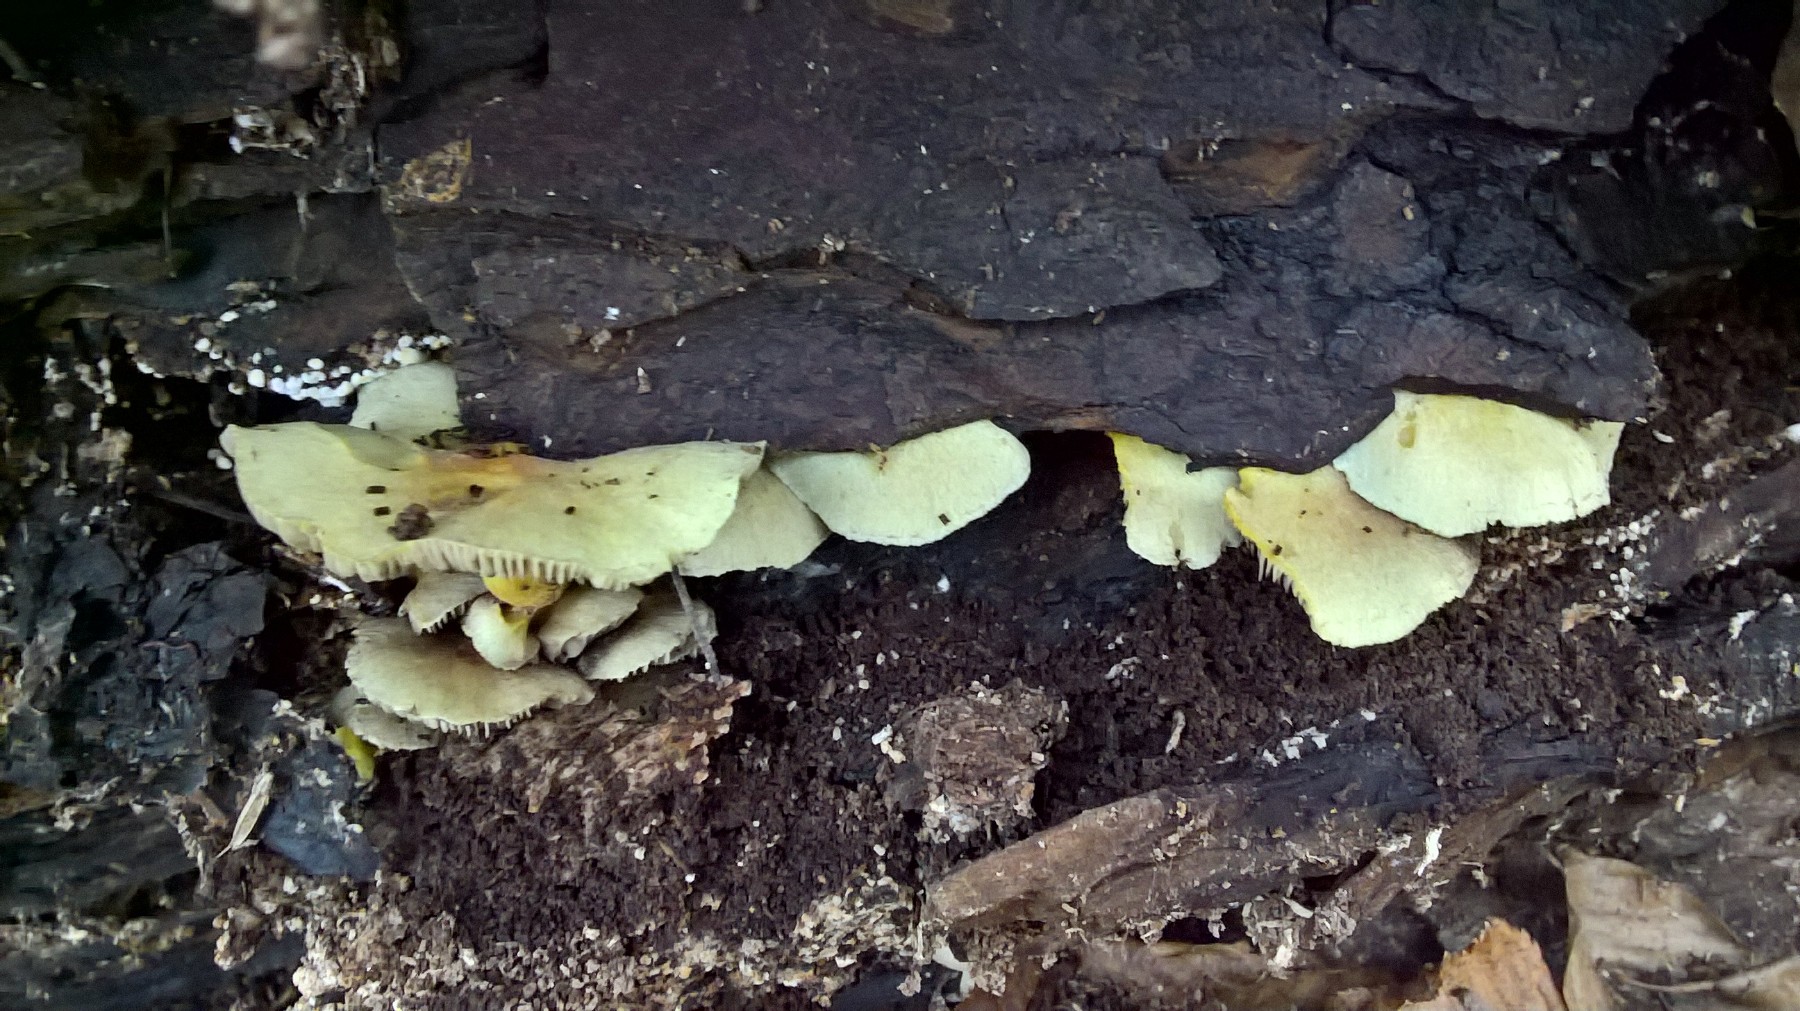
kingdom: Fungi
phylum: Basidiomycota
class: Agaricomycetes
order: Agaricales
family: Strophariaceae
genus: Hypholoma
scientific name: Hypholoma fasciculare
